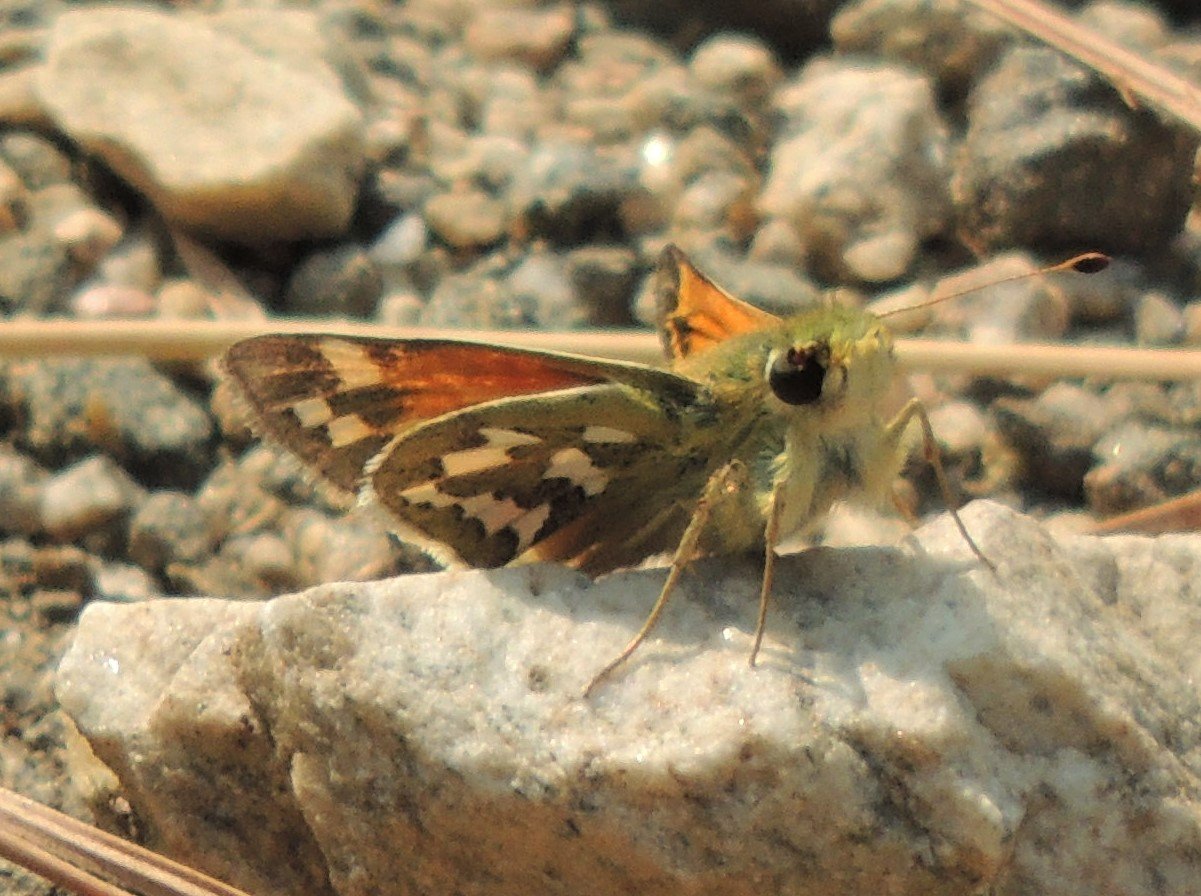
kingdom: Animalia
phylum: Arthropoda
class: Insecta
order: Lepidoptera
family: Hesperiidae
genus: Hesperia
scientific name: Hesperia juba
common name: Juba Skipper
